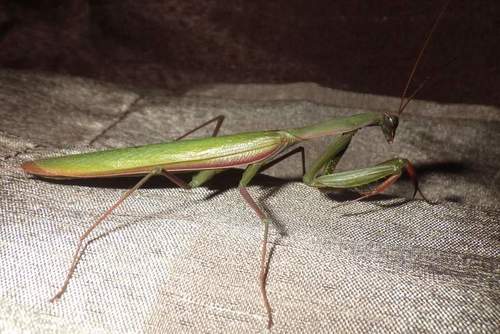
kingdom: Animalia
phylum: Arthropoda
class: Insecta
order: Mantodea
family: Mantidae
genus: Mantis
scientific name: Mantis religiosa
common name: Praying mantis
